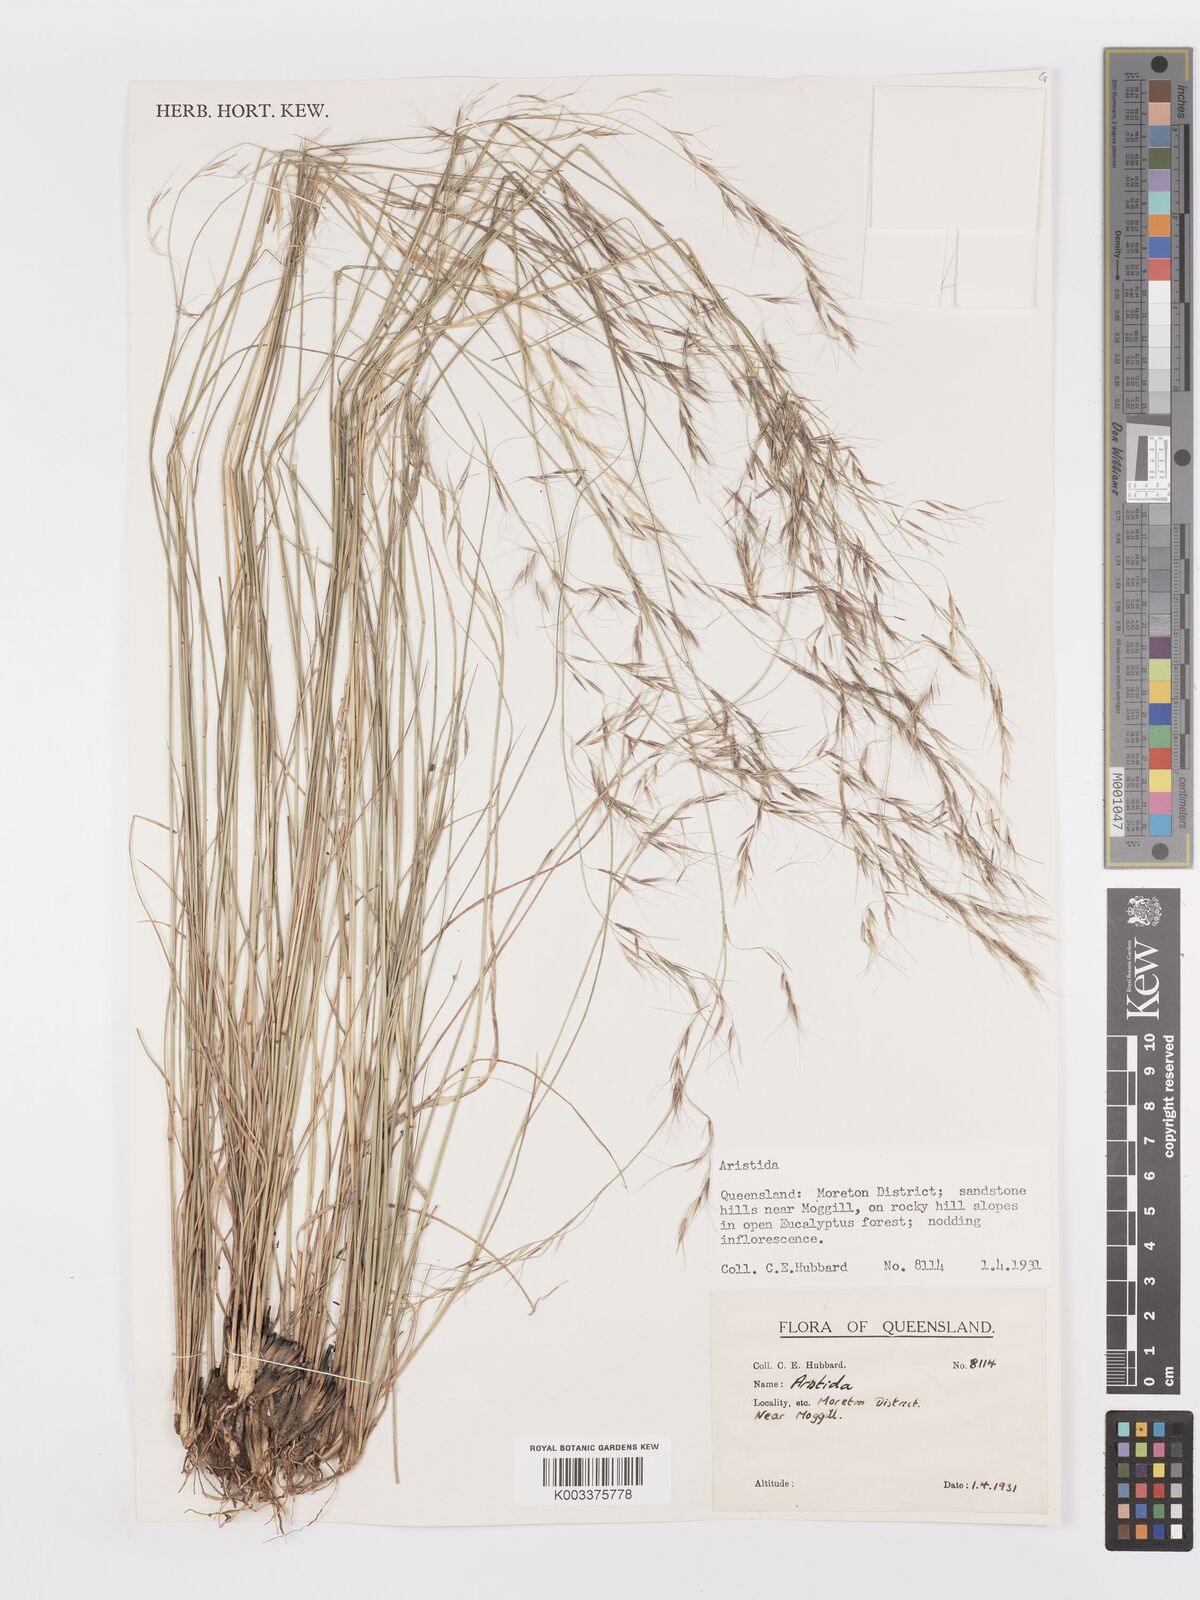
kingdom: Plantae
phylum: Tracheophyta
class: Liliopsida
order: Poales
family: Poaceae
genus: Aristida
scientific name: Aristida
